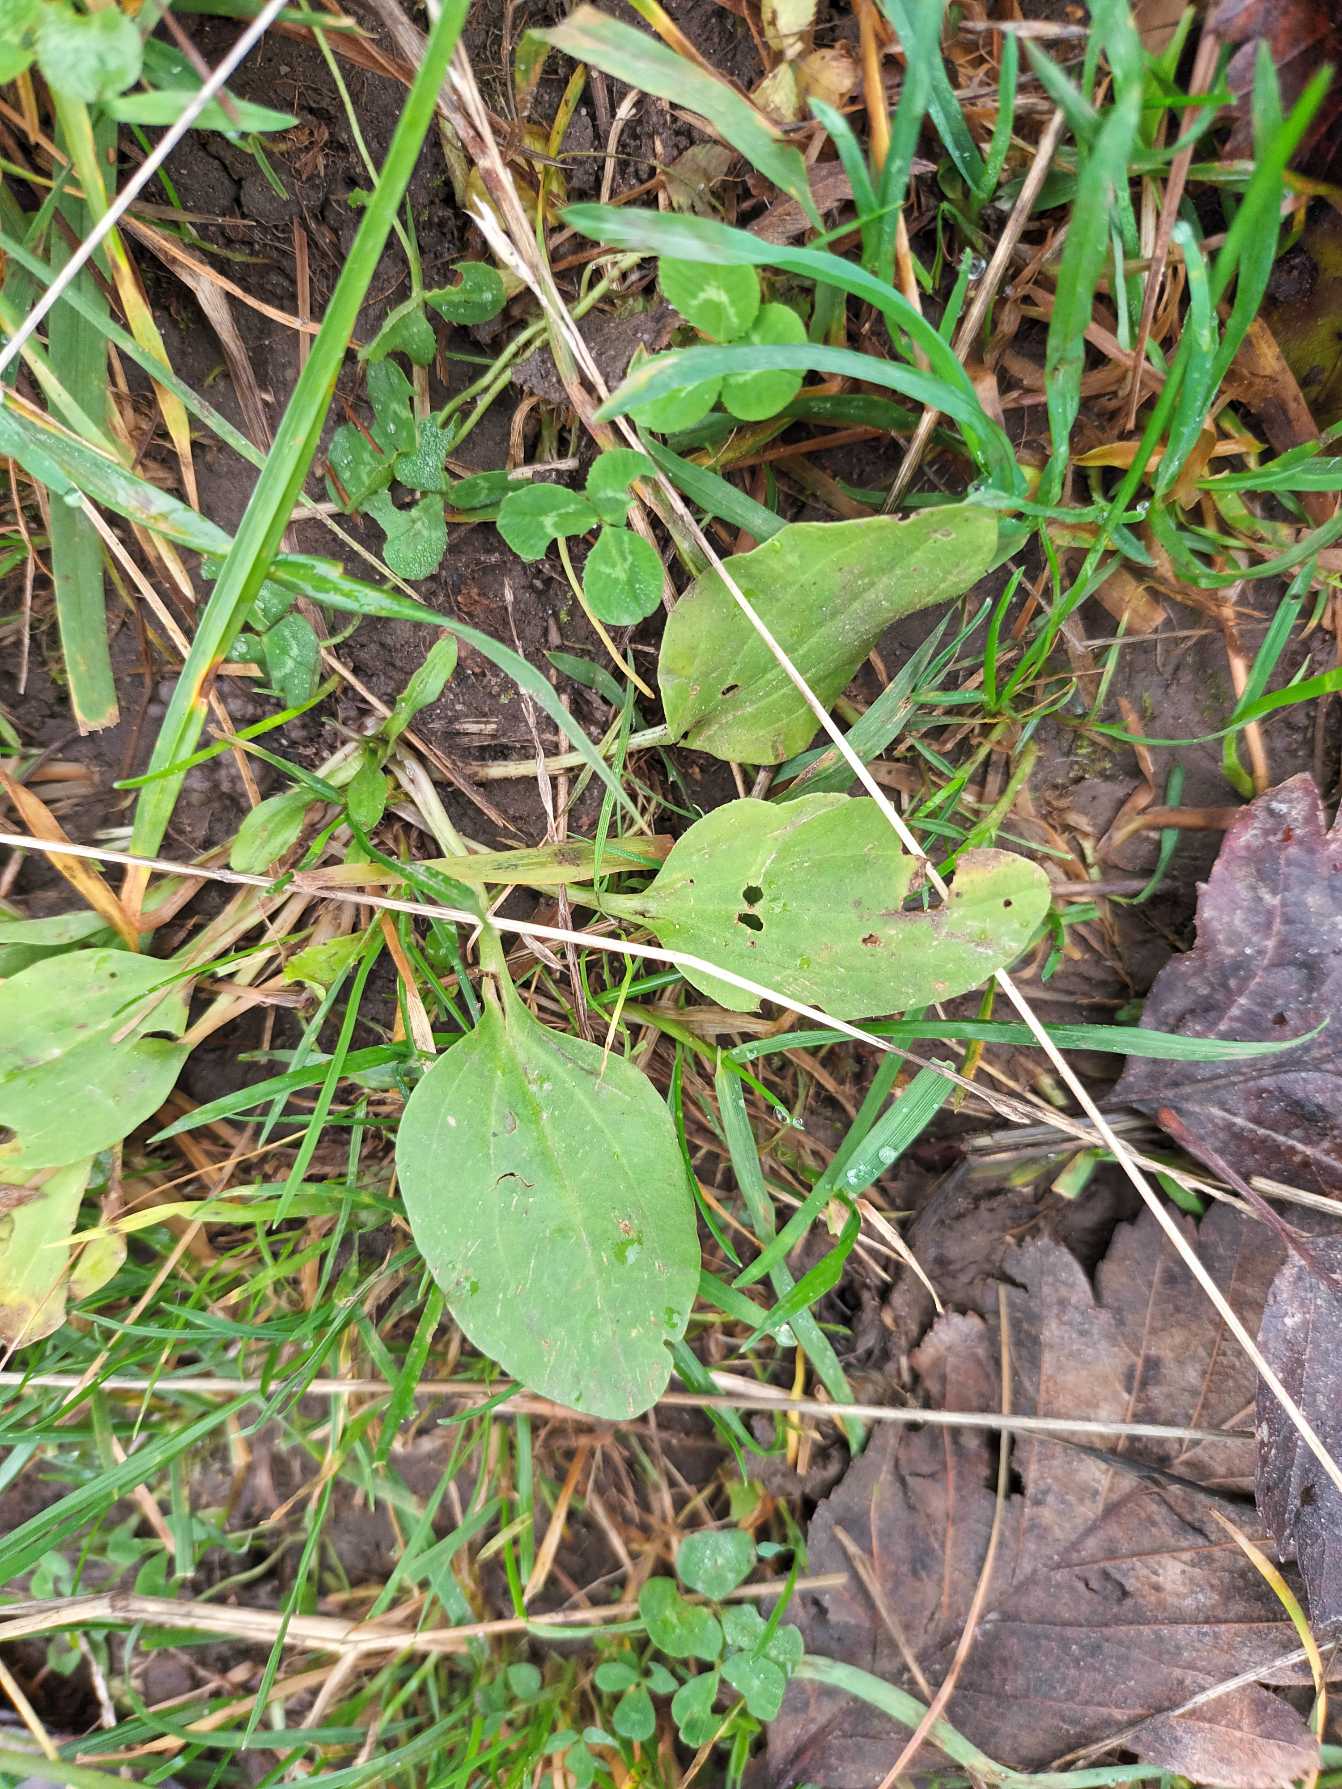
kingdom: Plantae
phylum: Tracheophyta
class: Magnoliopsida
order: Lamiales
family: Plantaginaceae
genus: Plantago
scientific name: Plantago major
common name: Glat vejbred
